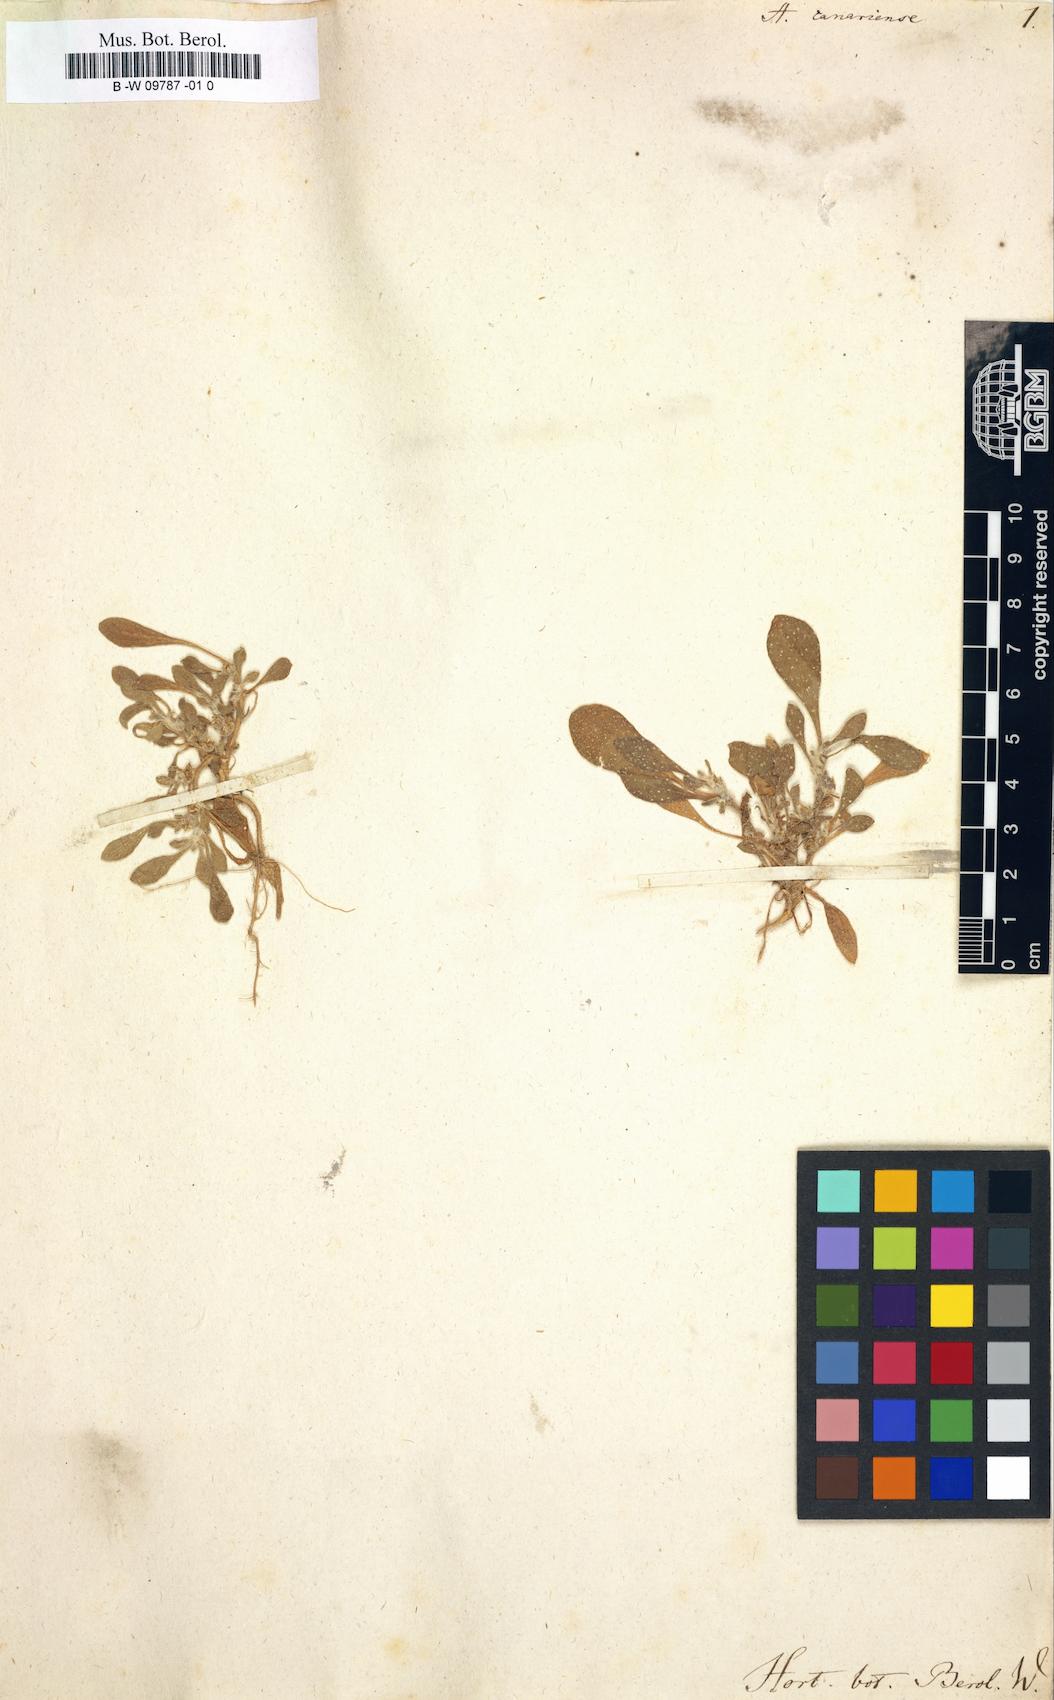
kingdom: Plantae
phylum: Tracheophyta
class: Magnoliopsida
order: Caryophyllales
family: Aizoaceae
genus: Aizoon
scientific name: Aizoon canariense
